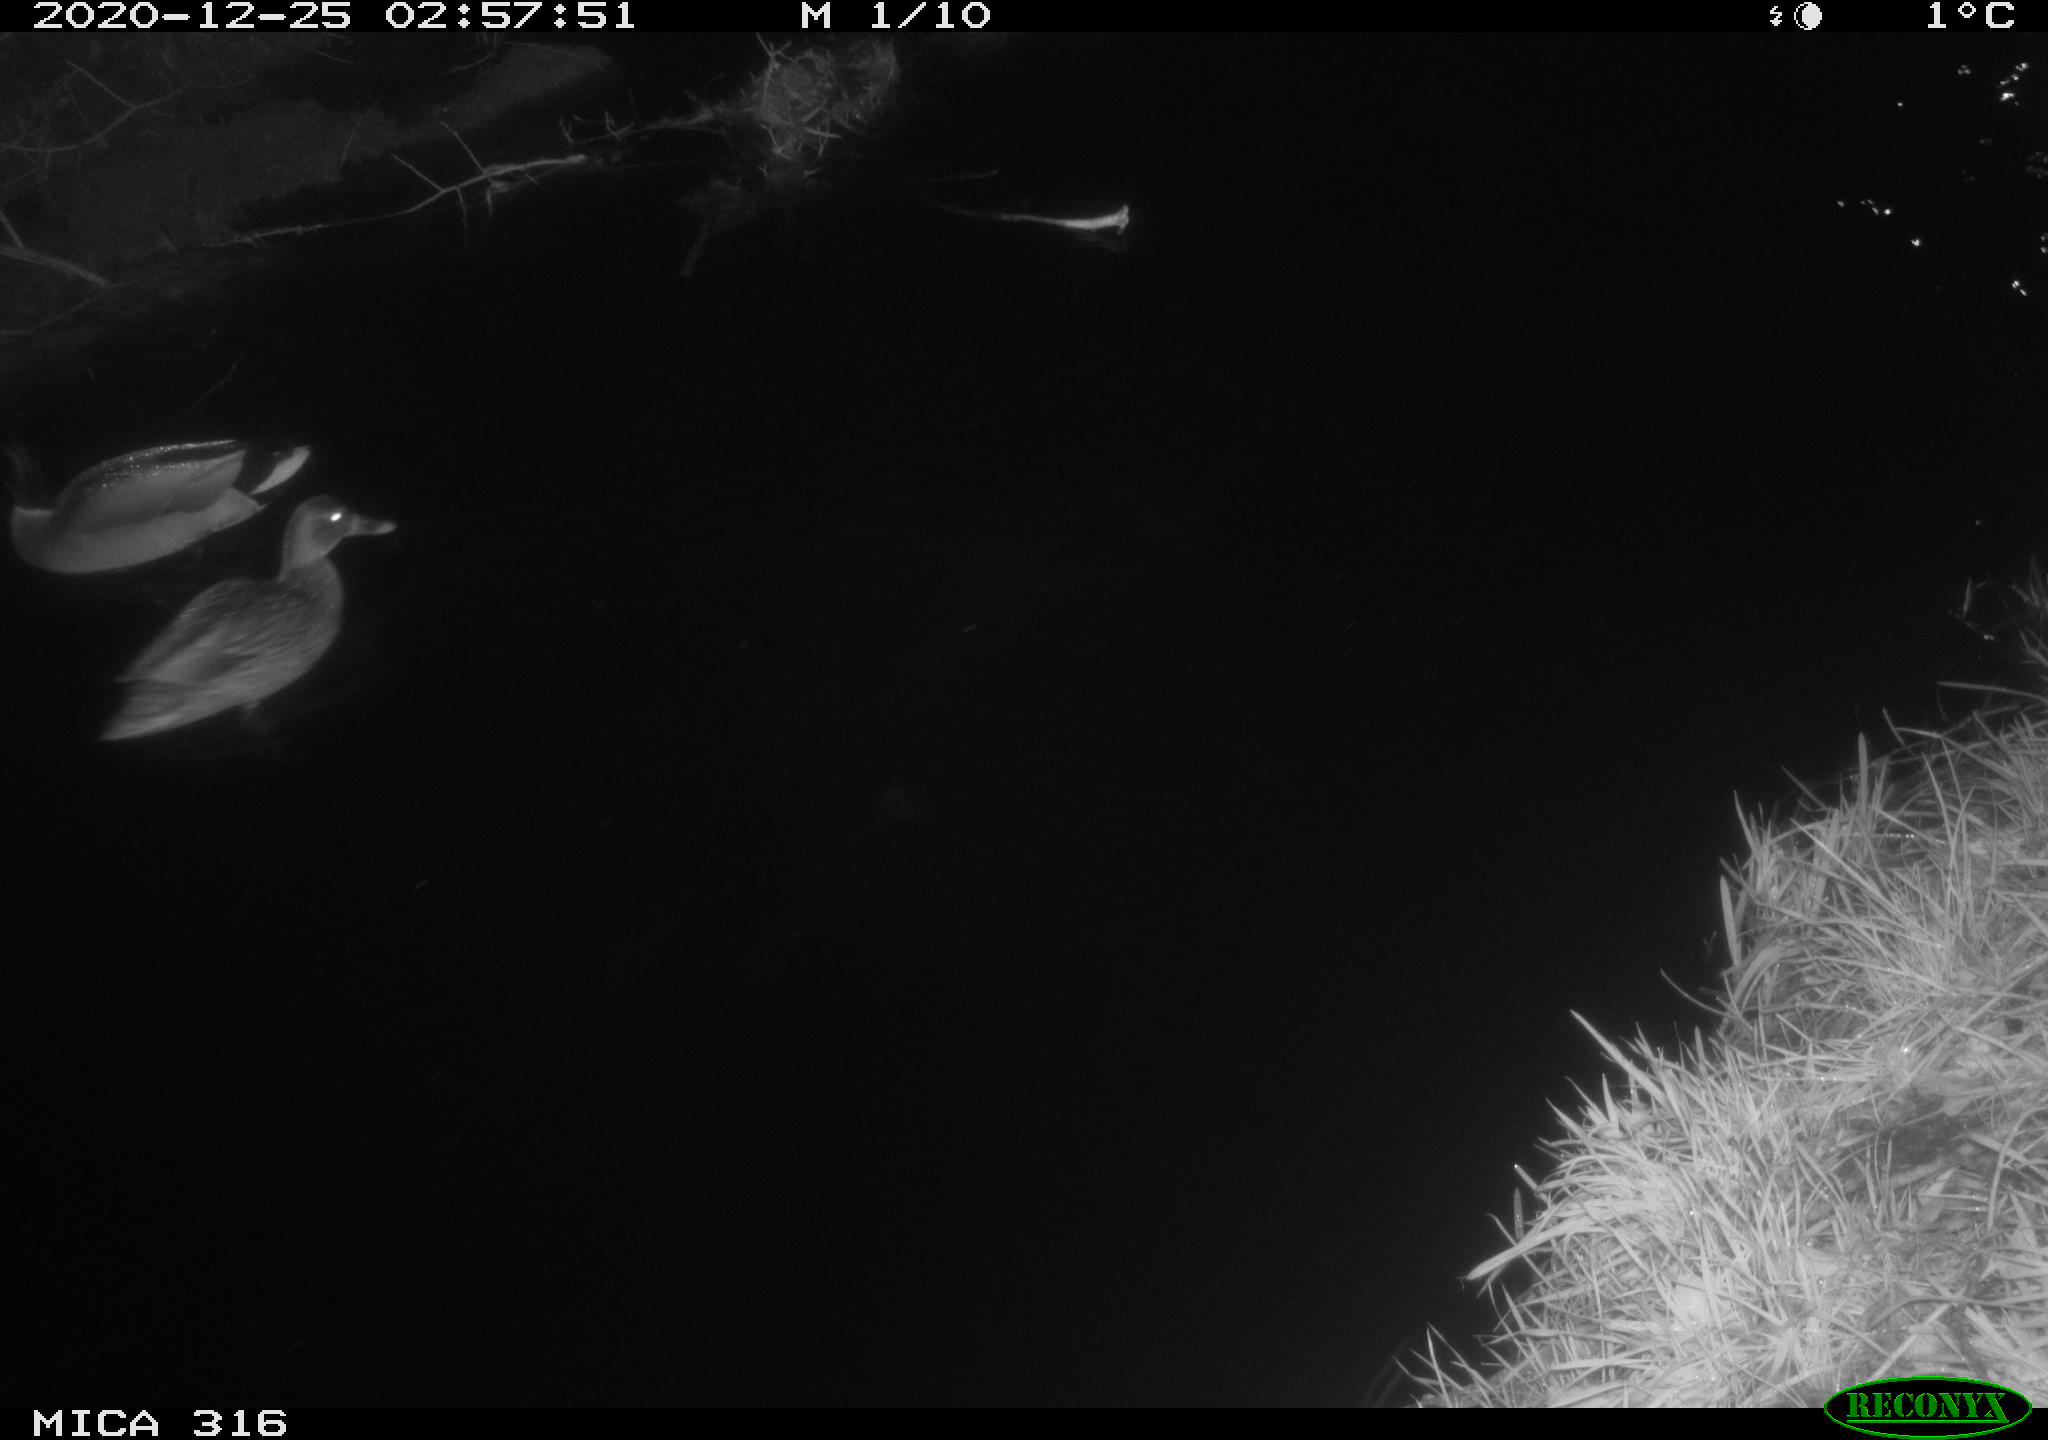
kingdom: Animalia
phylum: Chordata
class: Aves
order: Anseriformes
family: Anatidae
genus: Anas
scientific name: Anas platyrhynchos
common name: Mallard
